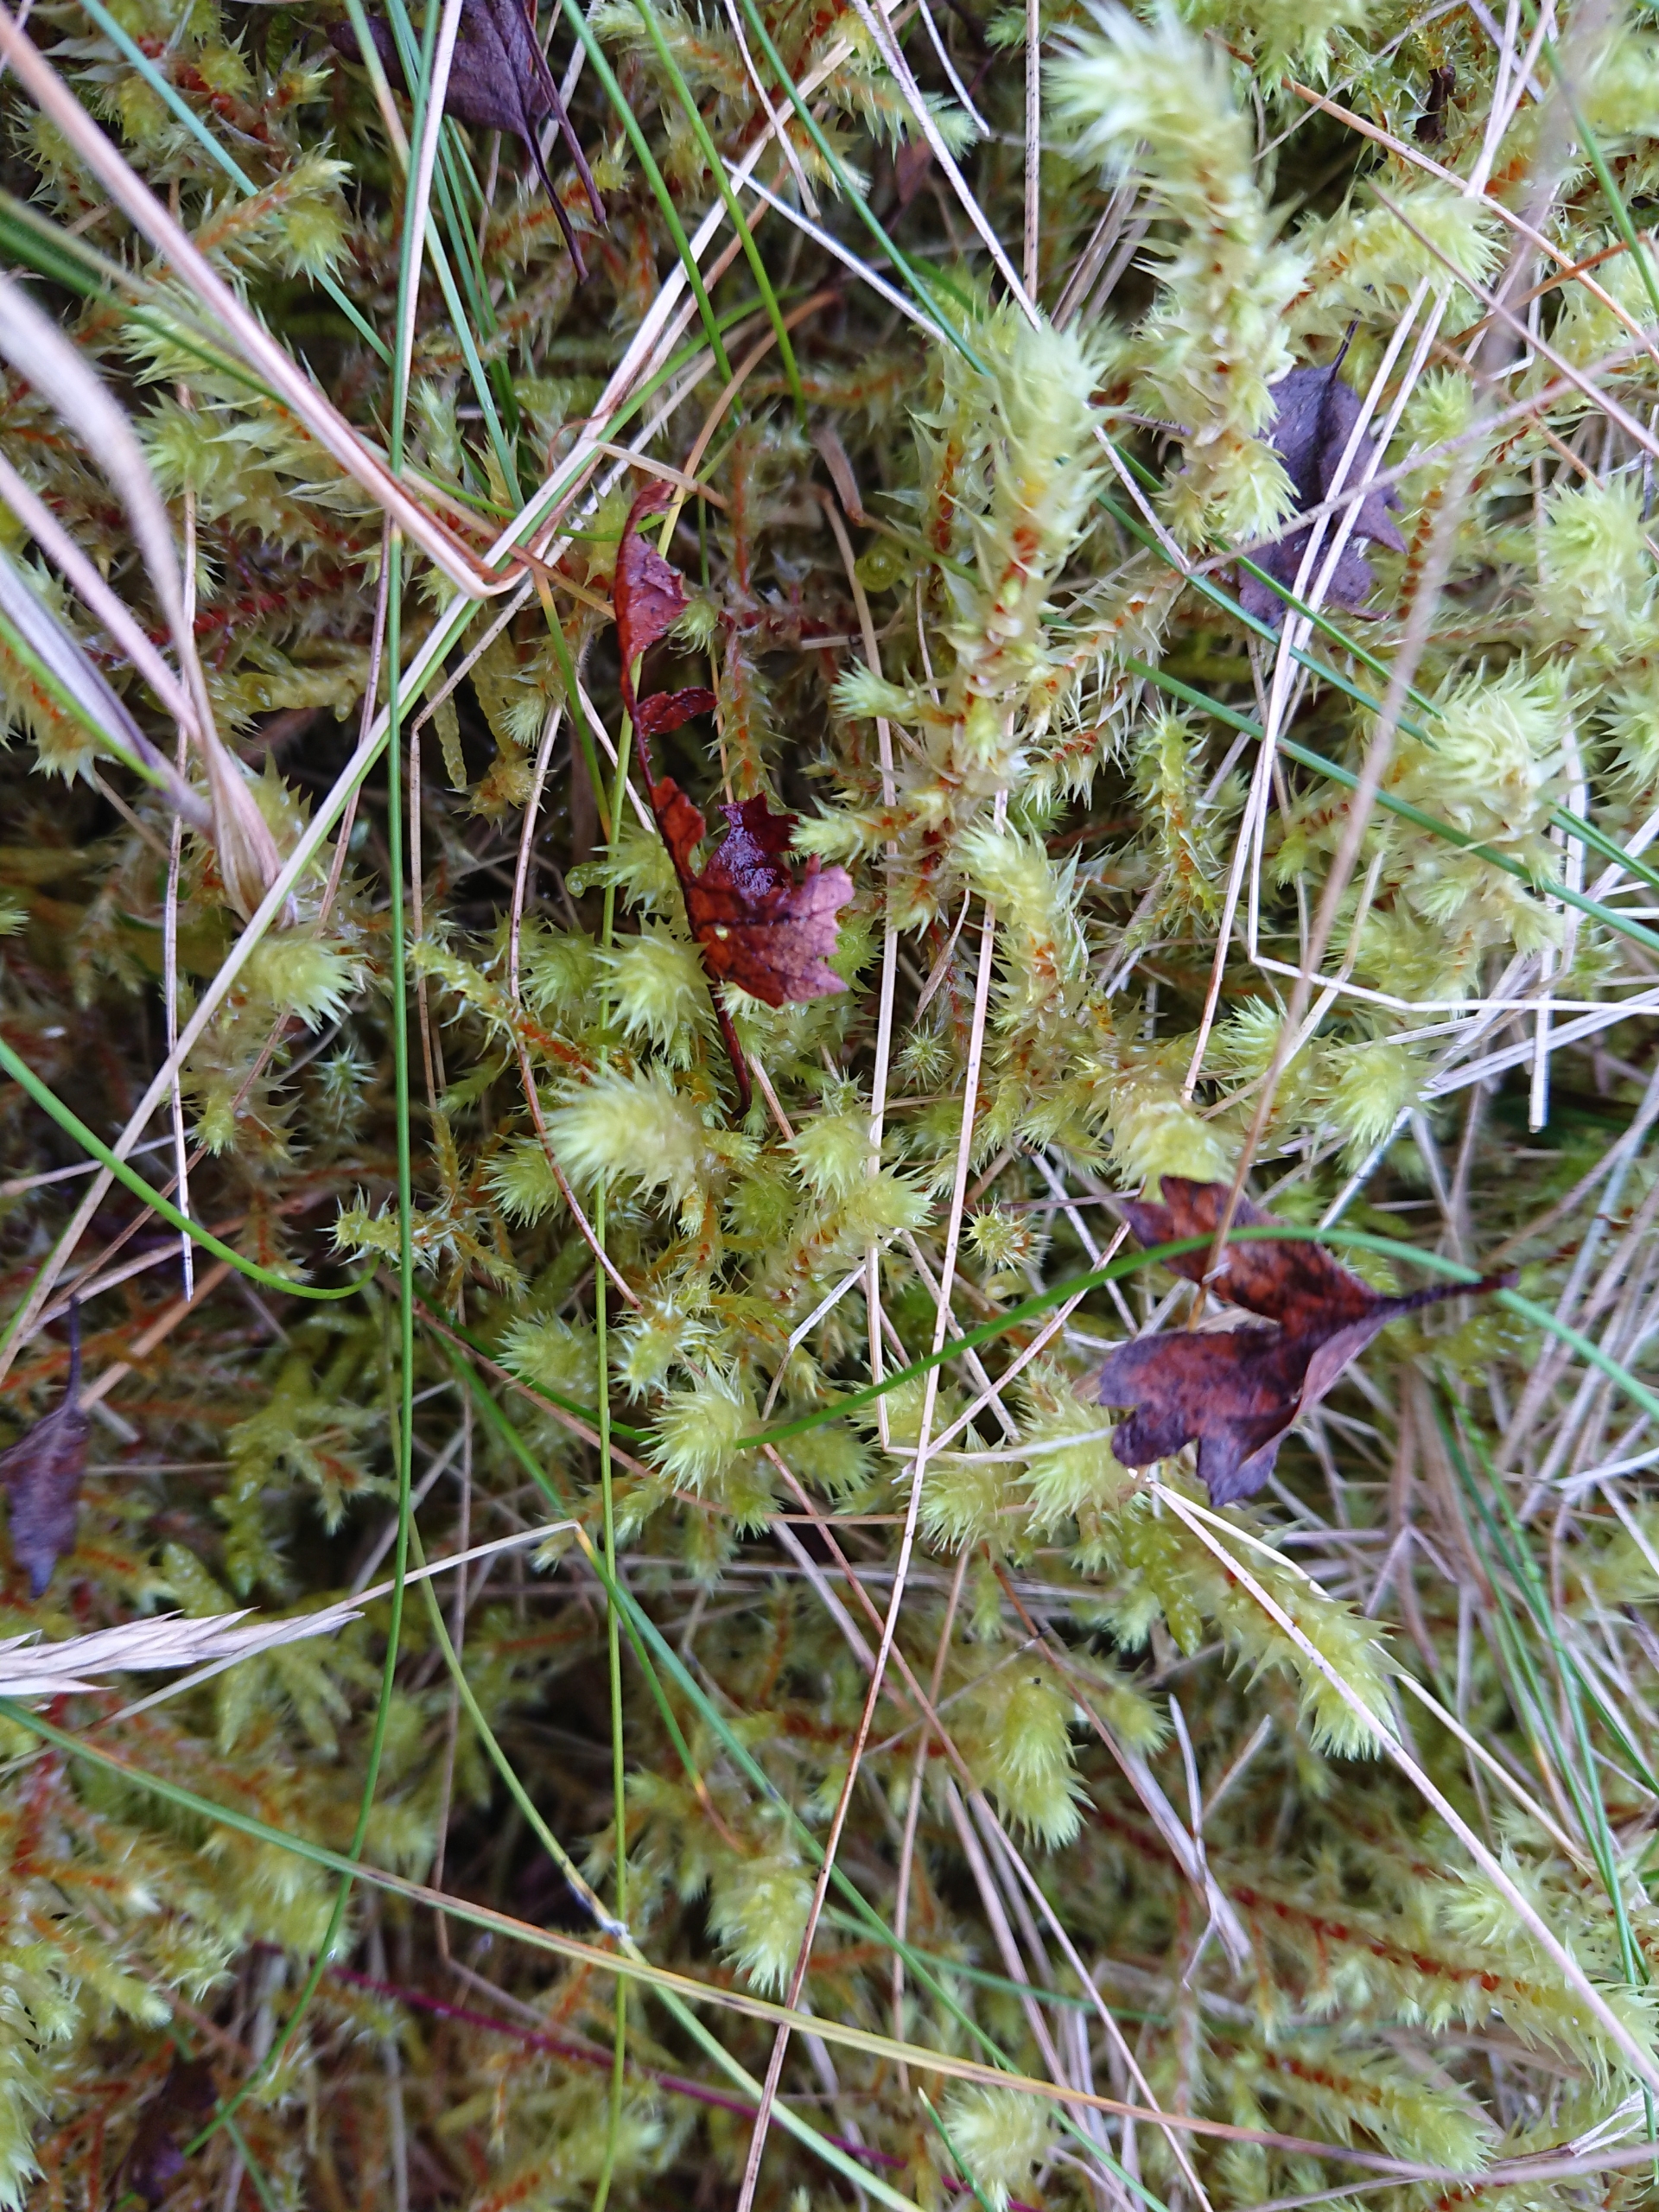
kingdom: Plantae
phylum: Bryophyta
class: Bryopsida
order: Hypnales
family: Hylocomiaceae
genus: Hylocomiadelphus
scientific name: Hylocomiadelphus triquetrus
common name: Stor kransemos
